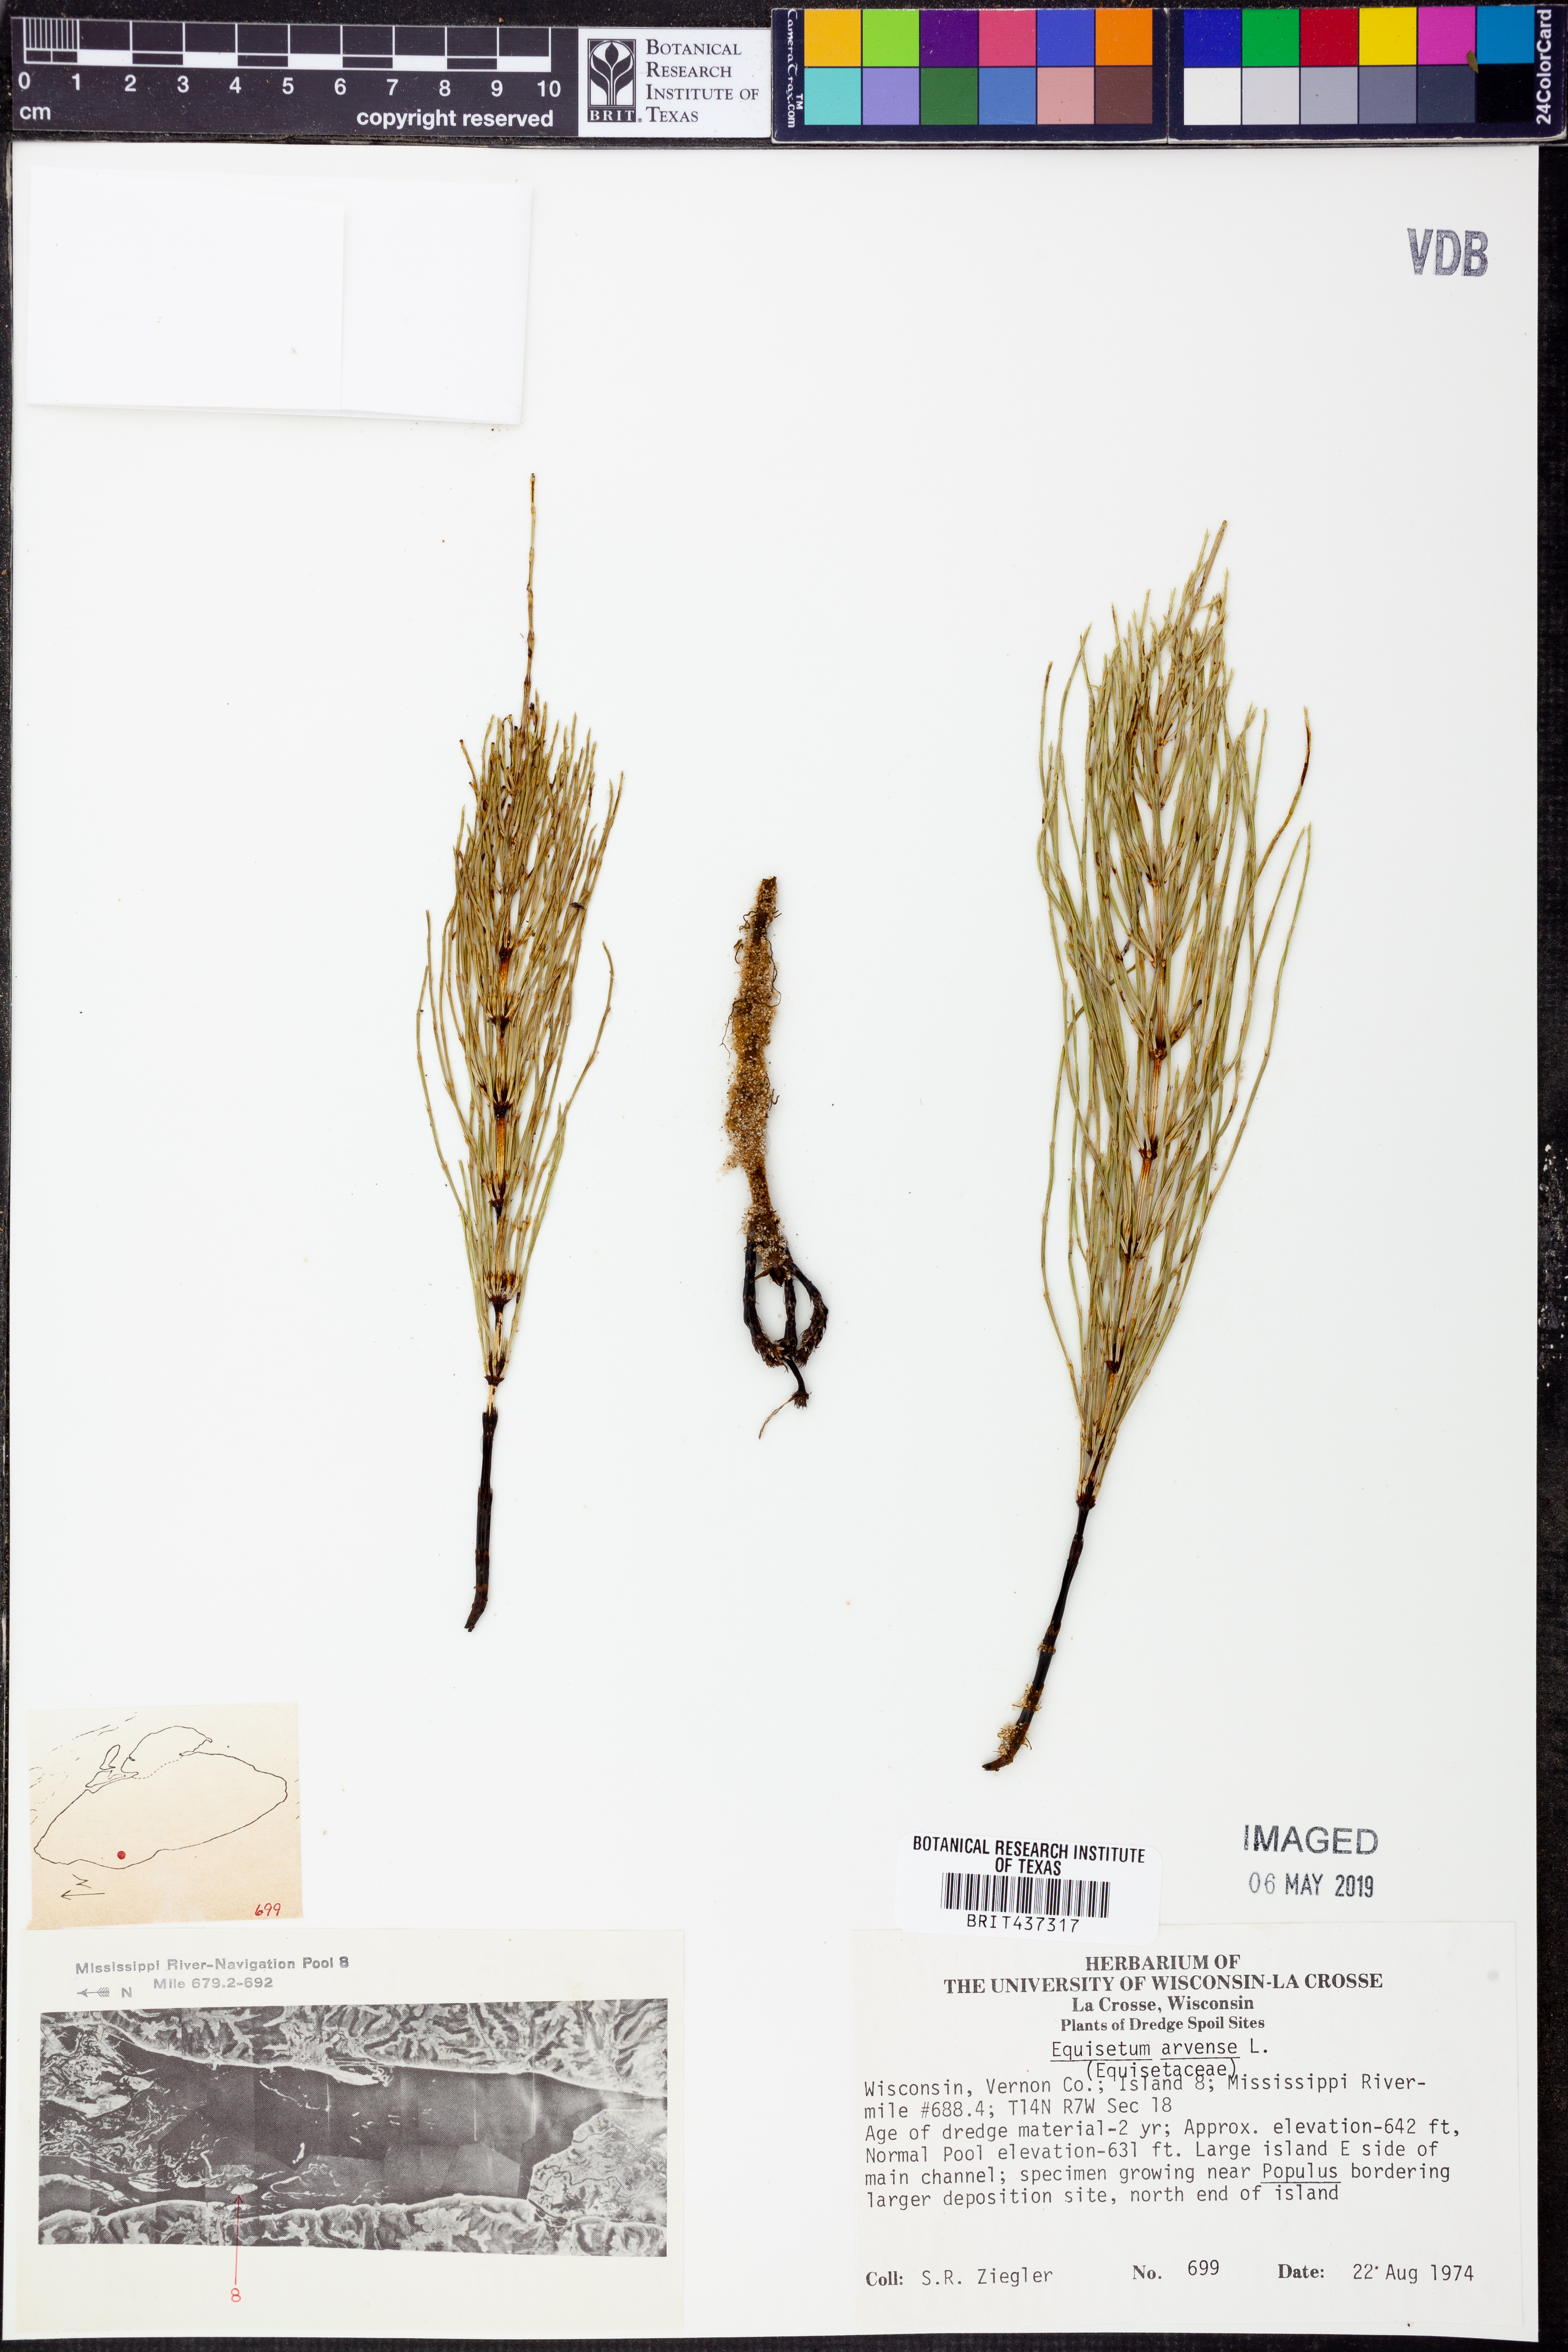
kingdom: Plantae
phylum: Tracheophyta
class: Polypodiopsida
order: Equisetales
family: Equisetaceae
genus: Equisetum
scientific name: Equisetum arvense
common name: Field horsetail
